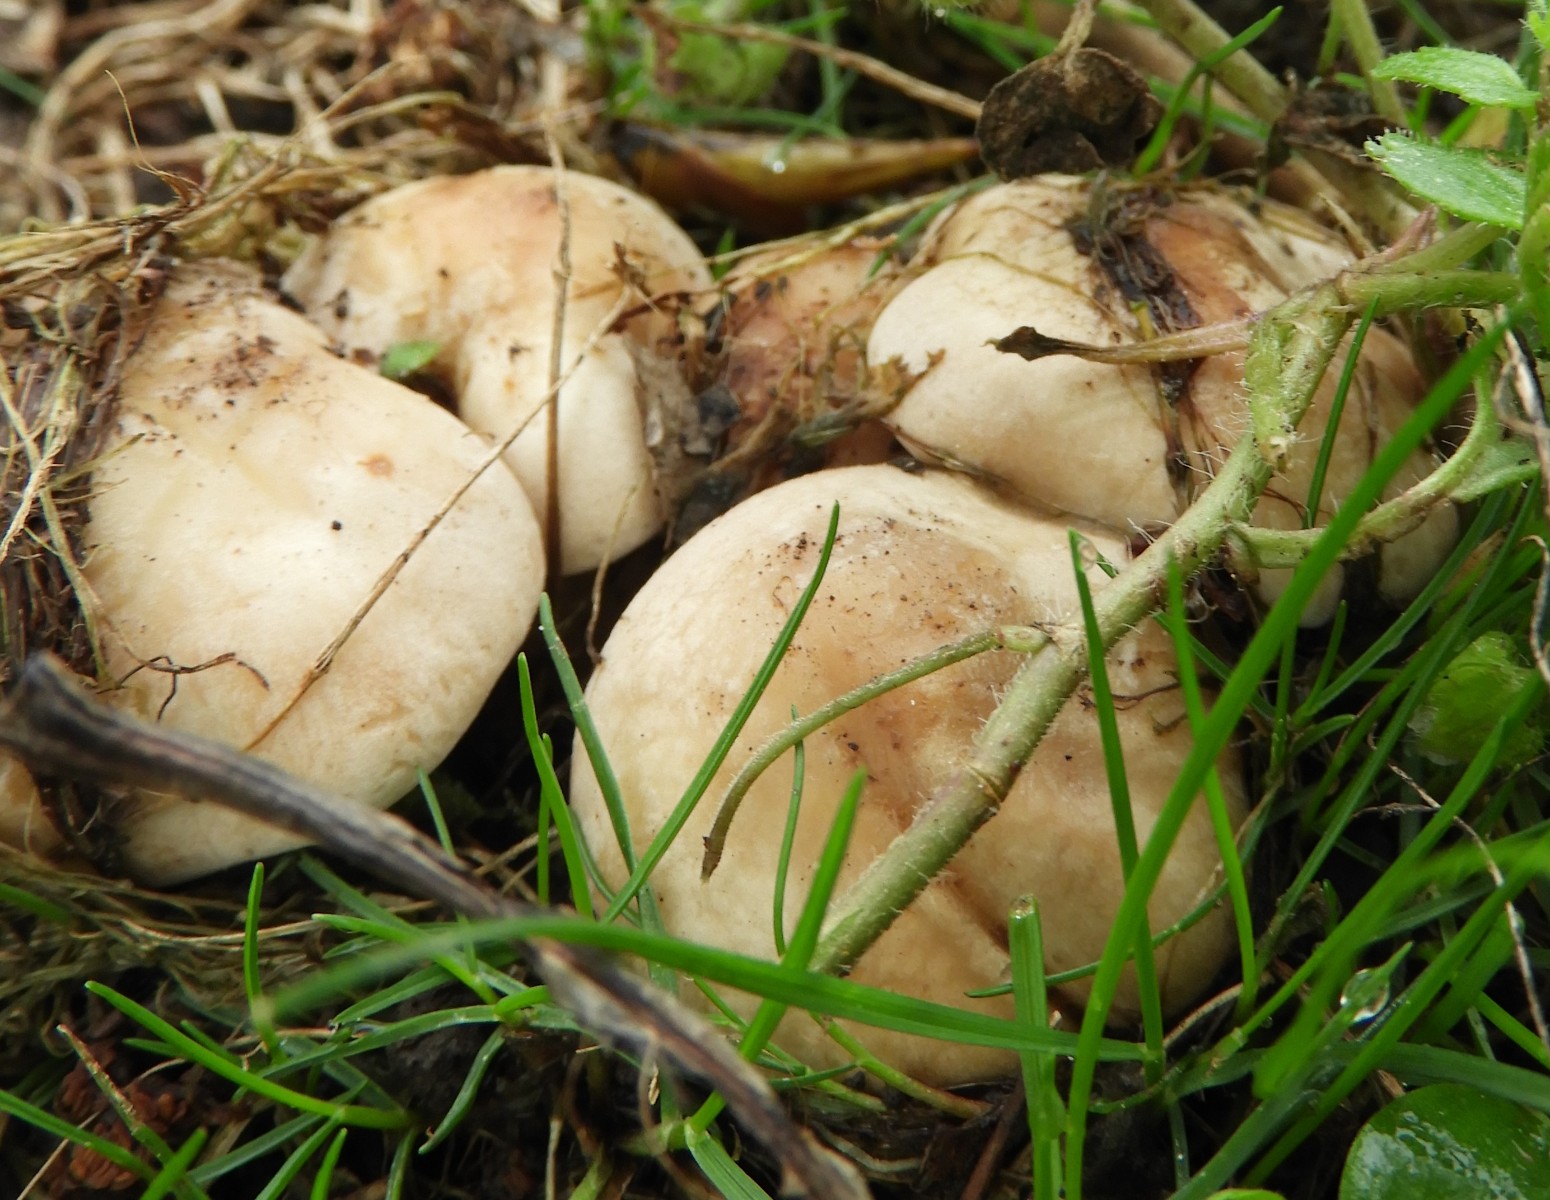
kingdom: Fungi
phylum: Basidiomycota
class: Agaricomycetes
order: Agaricales
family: Lyophyllaceae
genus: Calocybe
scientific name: Calocybe gambosa
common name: vårmusseron
